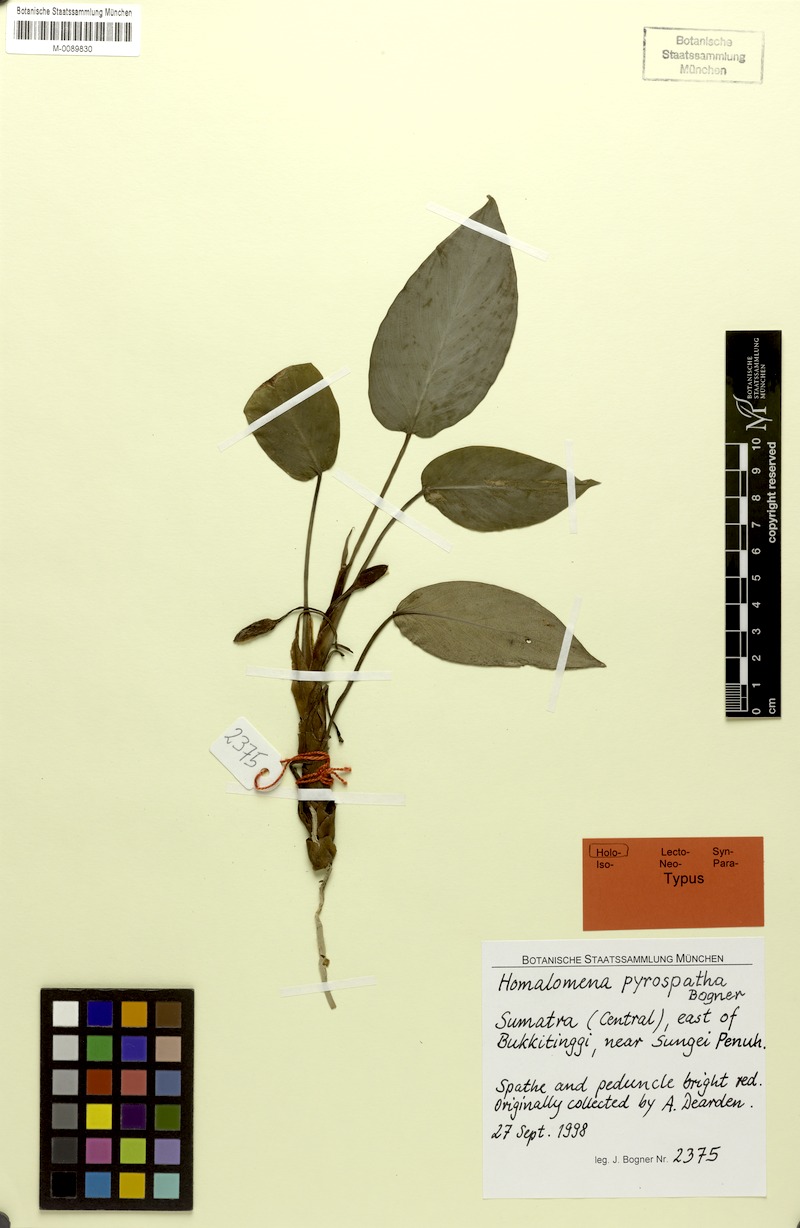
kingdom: Plantae
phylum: Tracheophyta
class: Liliopsida
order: Alismatales
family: Araceae
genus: Homalomena
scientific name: Homalomena pyrospatha
